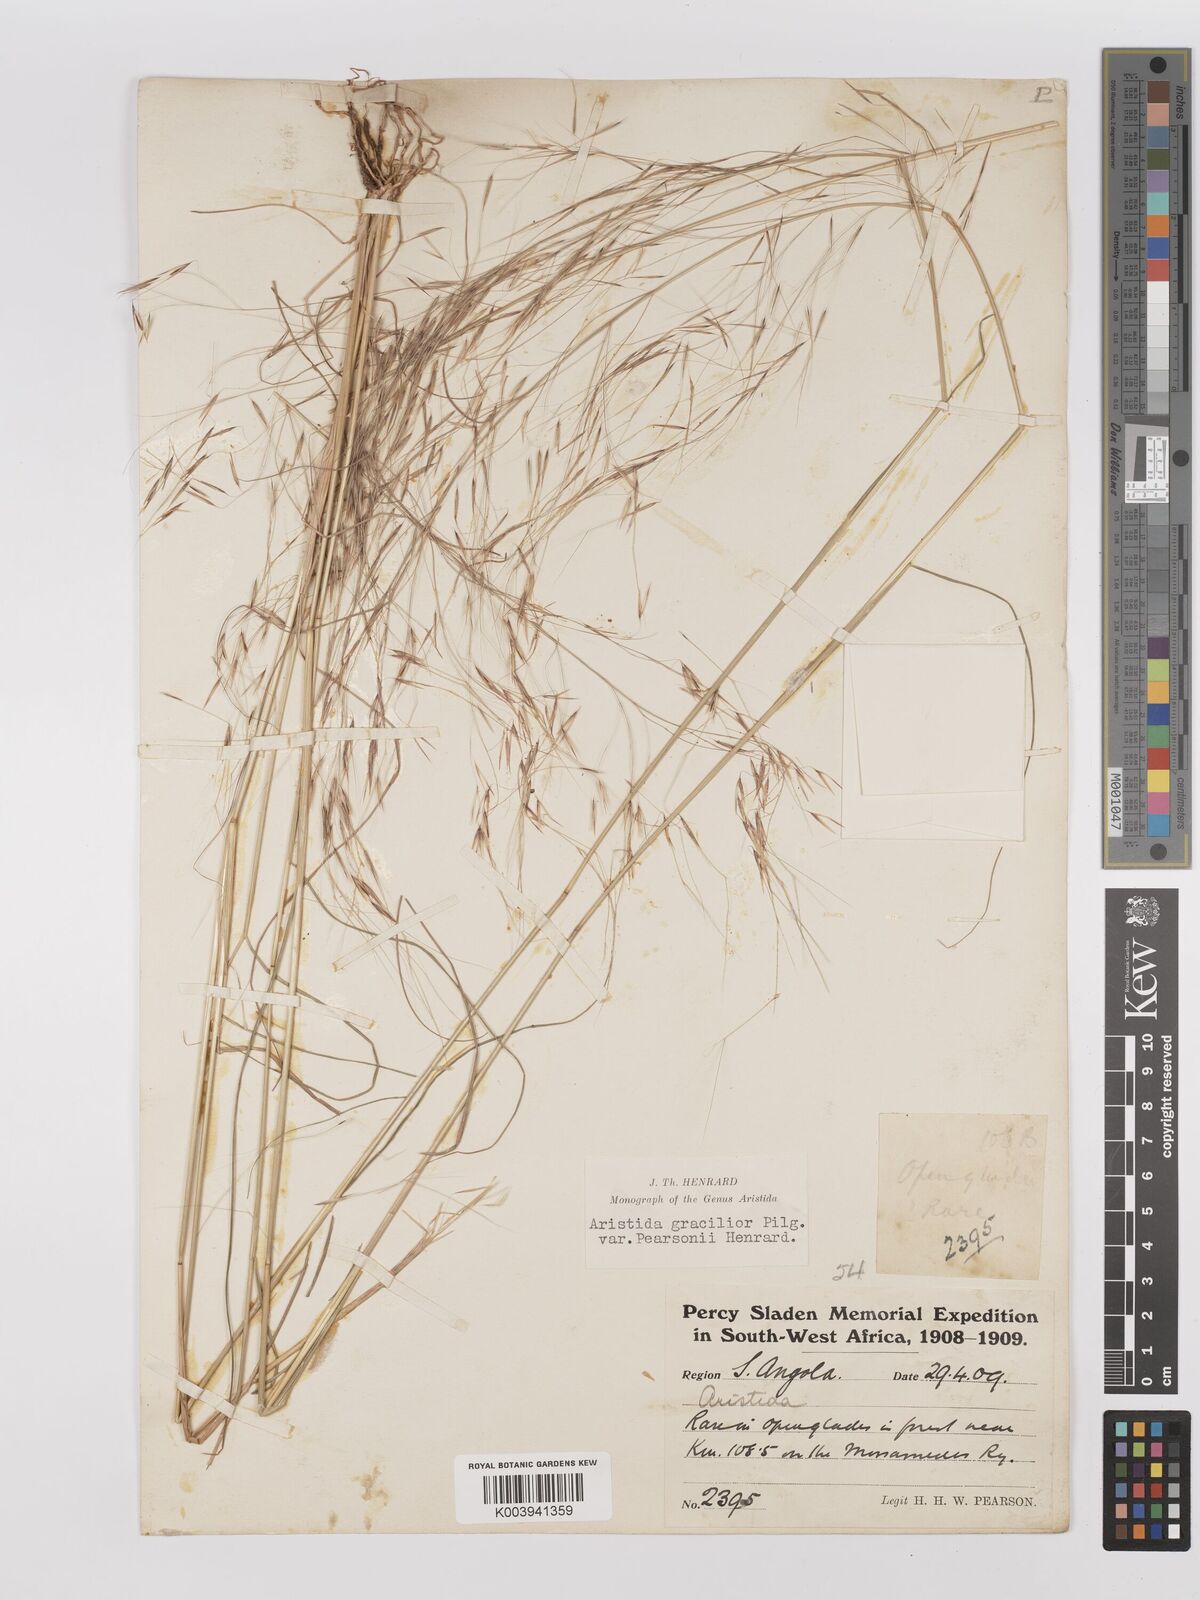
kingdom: Plantae
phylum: Tracheophyta
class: Liliopsida
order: Poales
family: Poaceae
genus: Stipagrostis
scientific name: Stipagrostis hirtigluma
